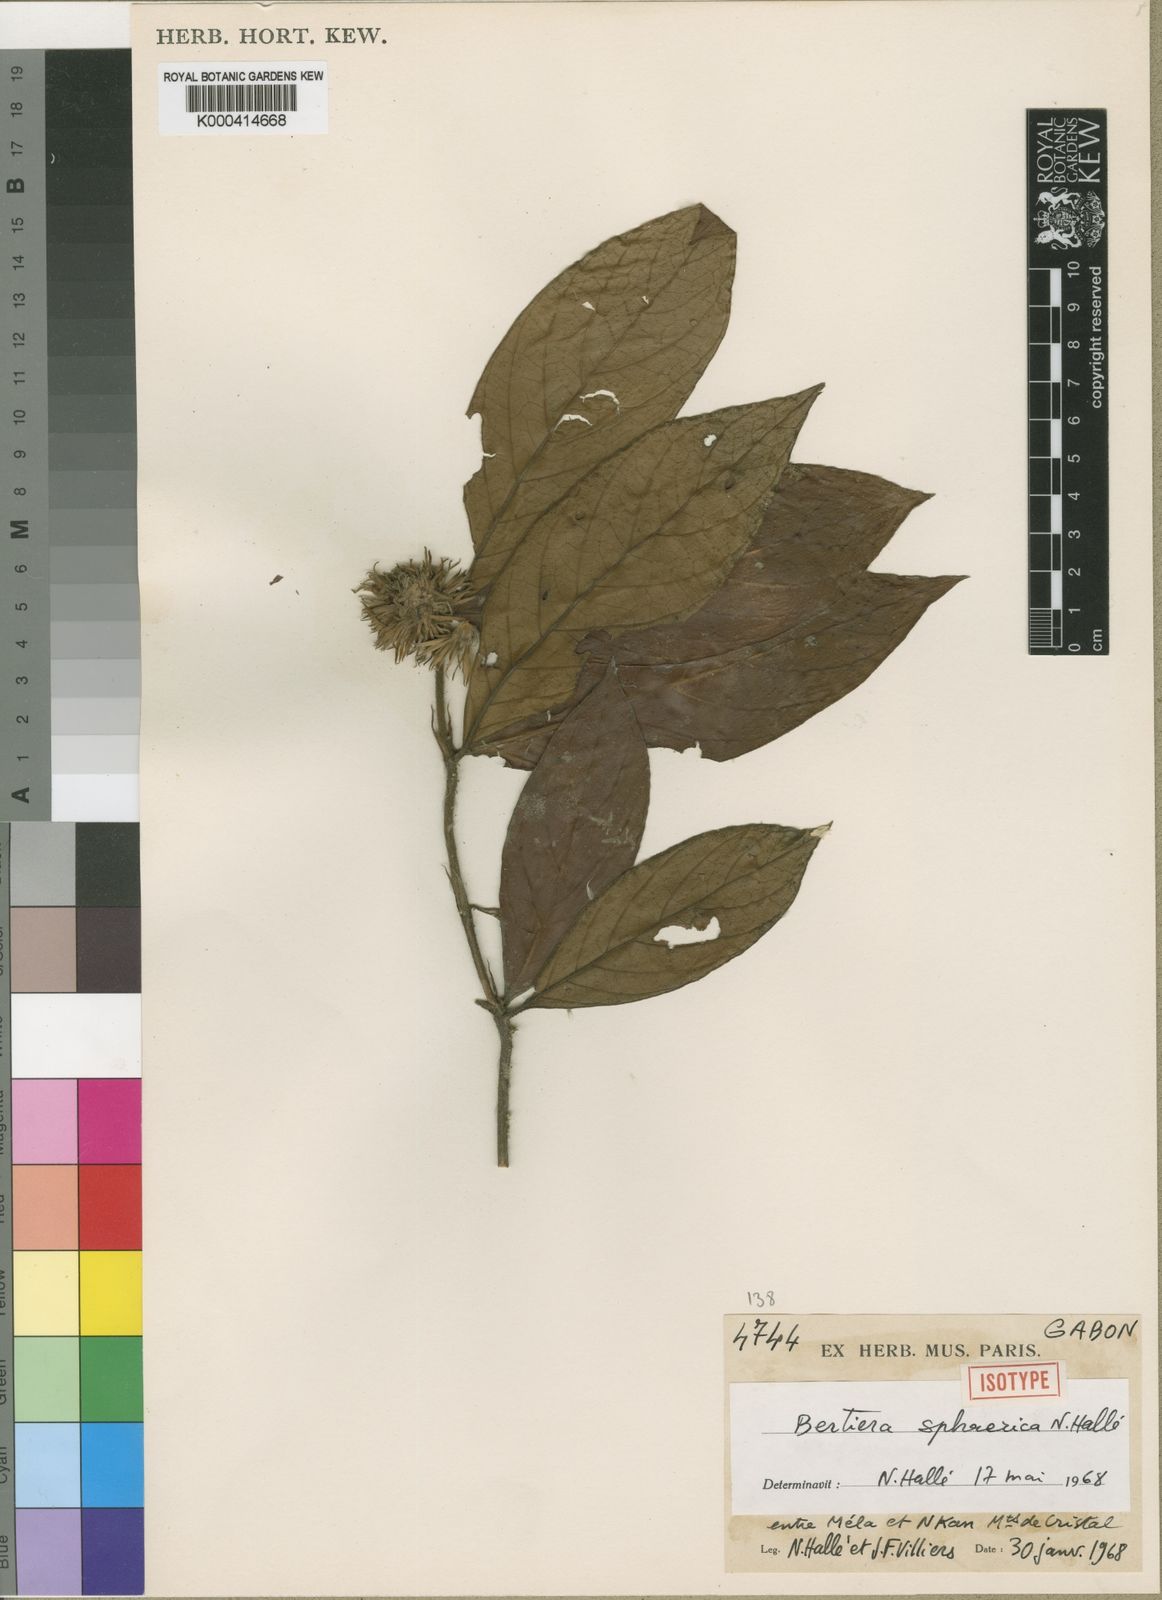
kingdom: Plantae
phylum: Tracheophyta
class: Magnoliopsida
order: Gentianales
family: Rubiaceae
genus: Bertiera
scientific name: Bertiera
